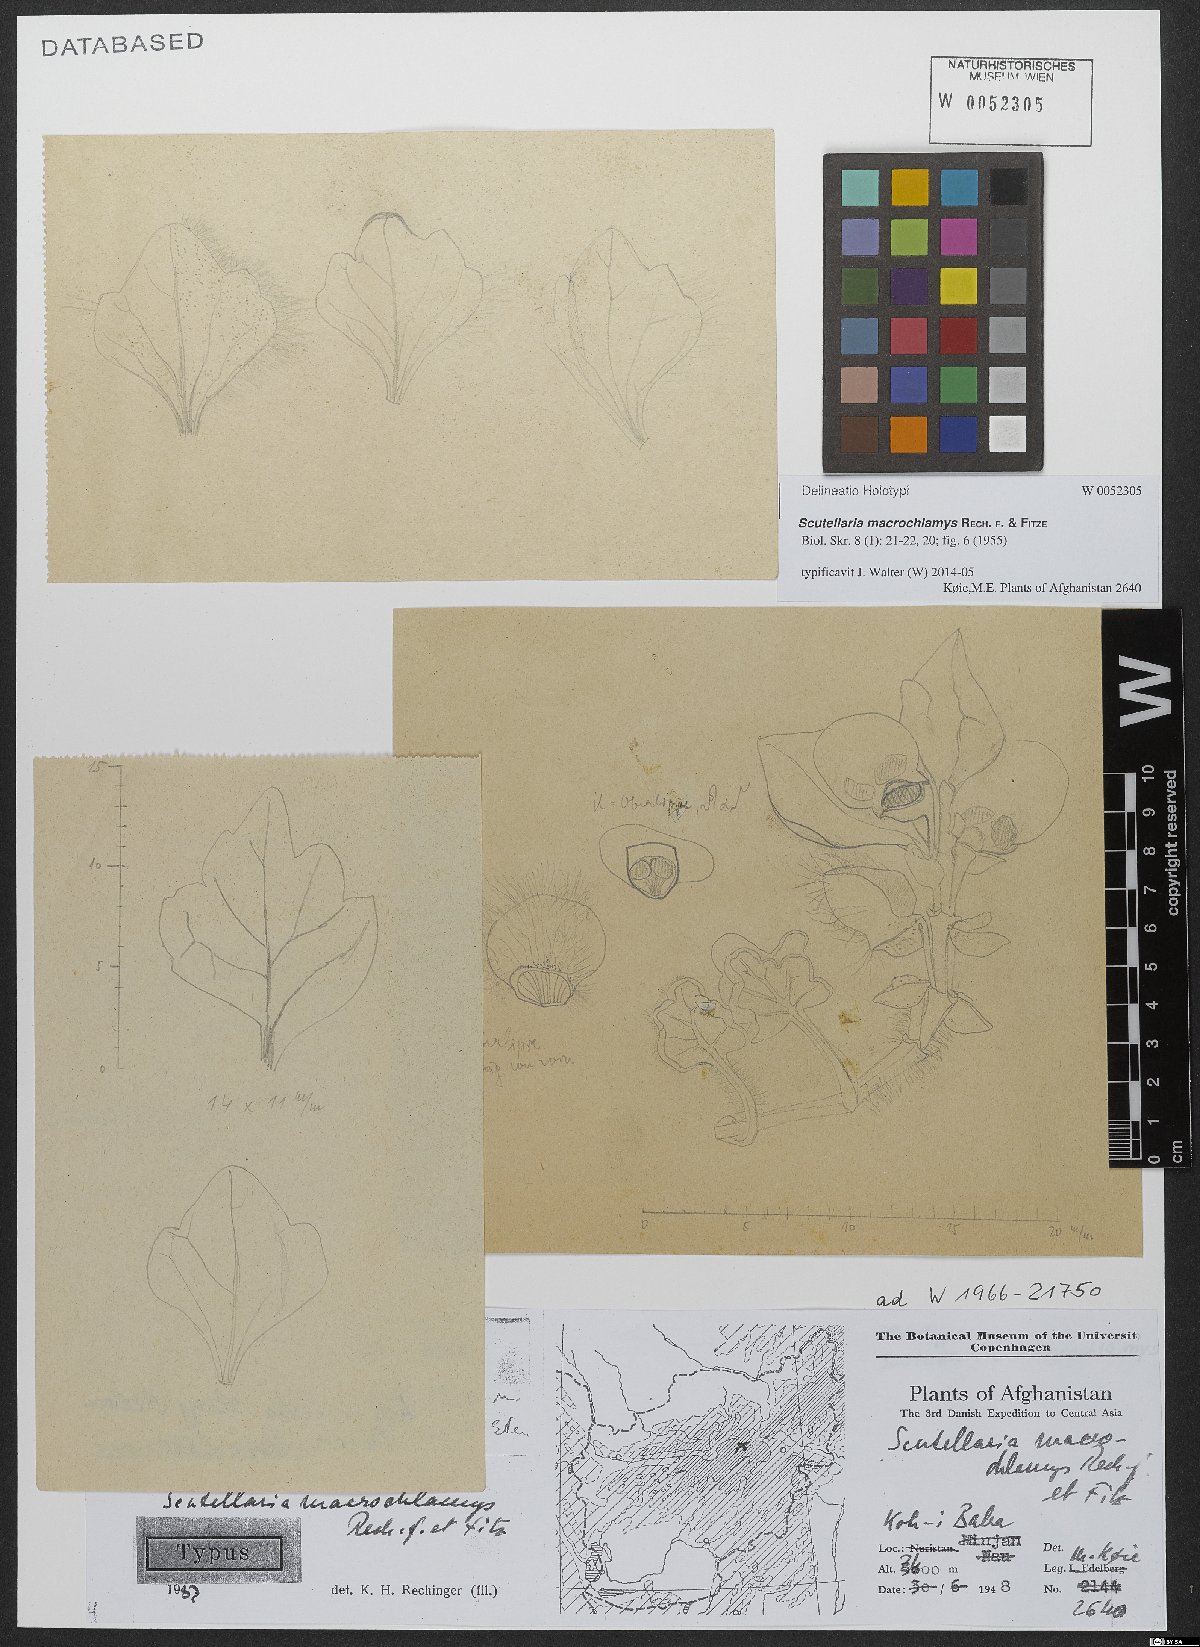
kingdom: Plantae
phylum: Tracheophyta
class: Magnoliopsida
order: Lamiales
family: Lamiaceae
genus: Scutellaria
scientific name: Scutellaria macrochlamys
